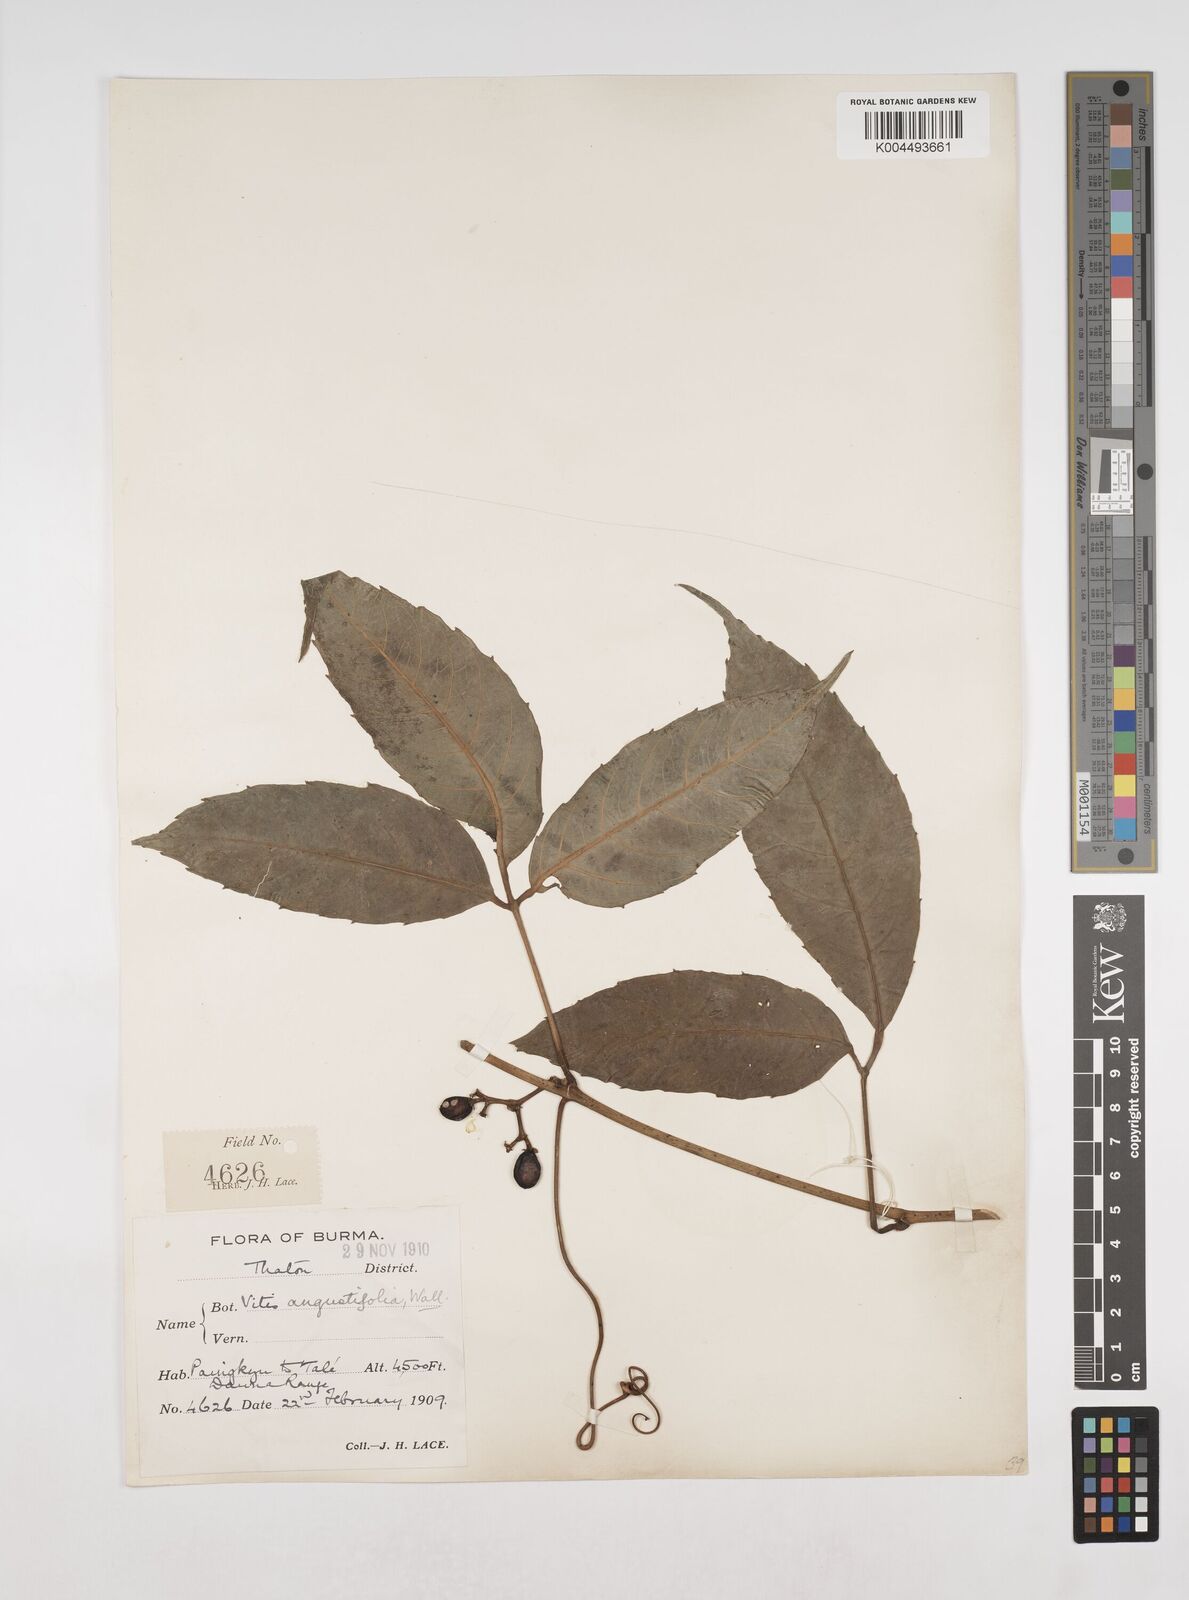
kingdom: Plantae
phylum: Tracheophyta
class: Magnoliopsida
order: Vitales
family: Vitaceae
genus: Tetrastigma
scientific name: Tetrastigma angustifolium
